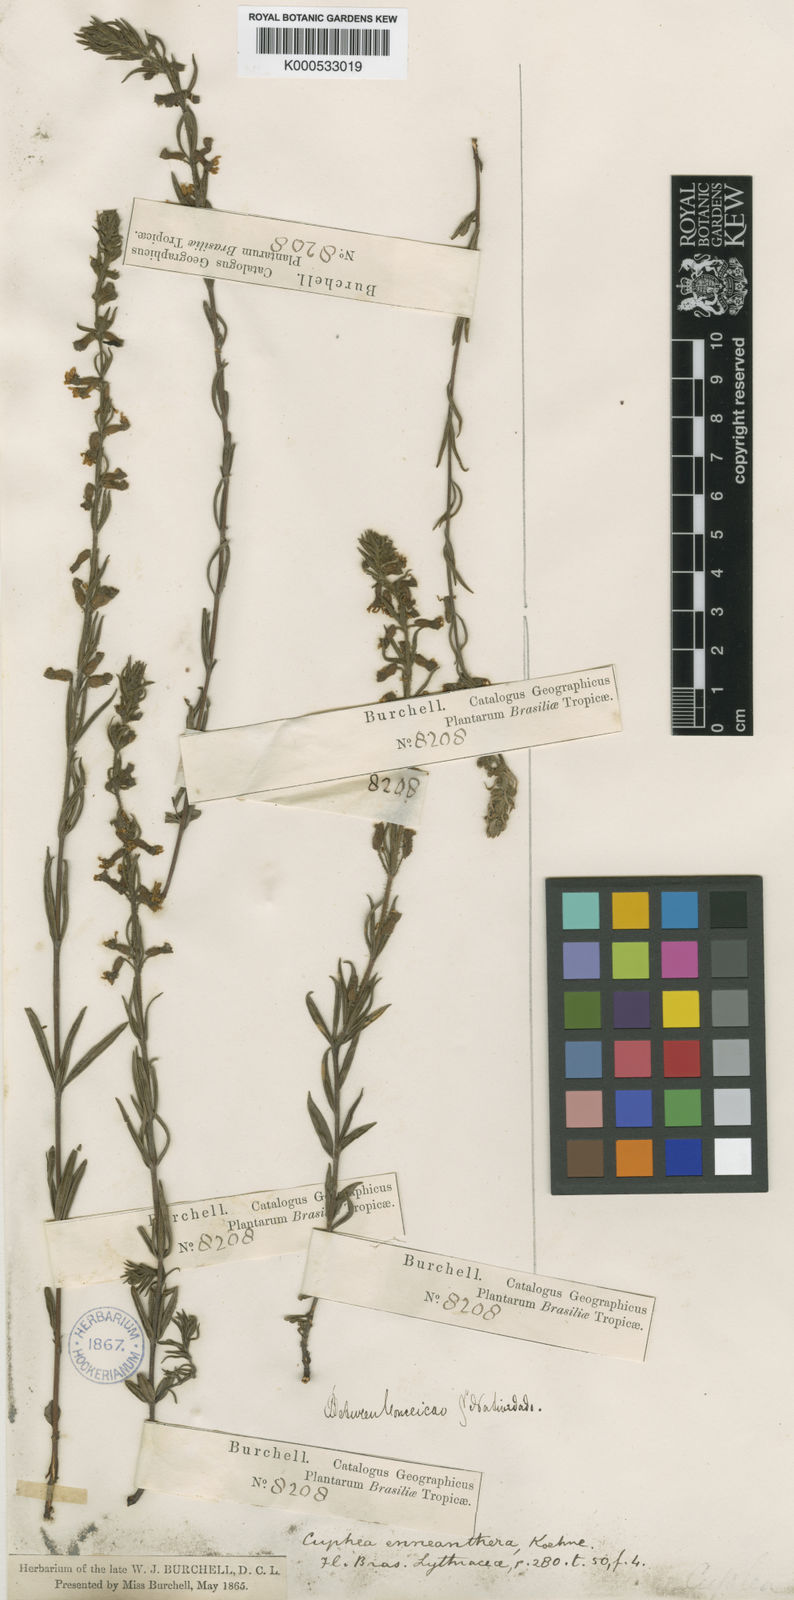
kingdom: Plantae
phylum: Tracheophyta
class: Magnoliopsida
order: Myrtales
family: Lythraceae
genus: Cuphea
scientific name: Cuphea
